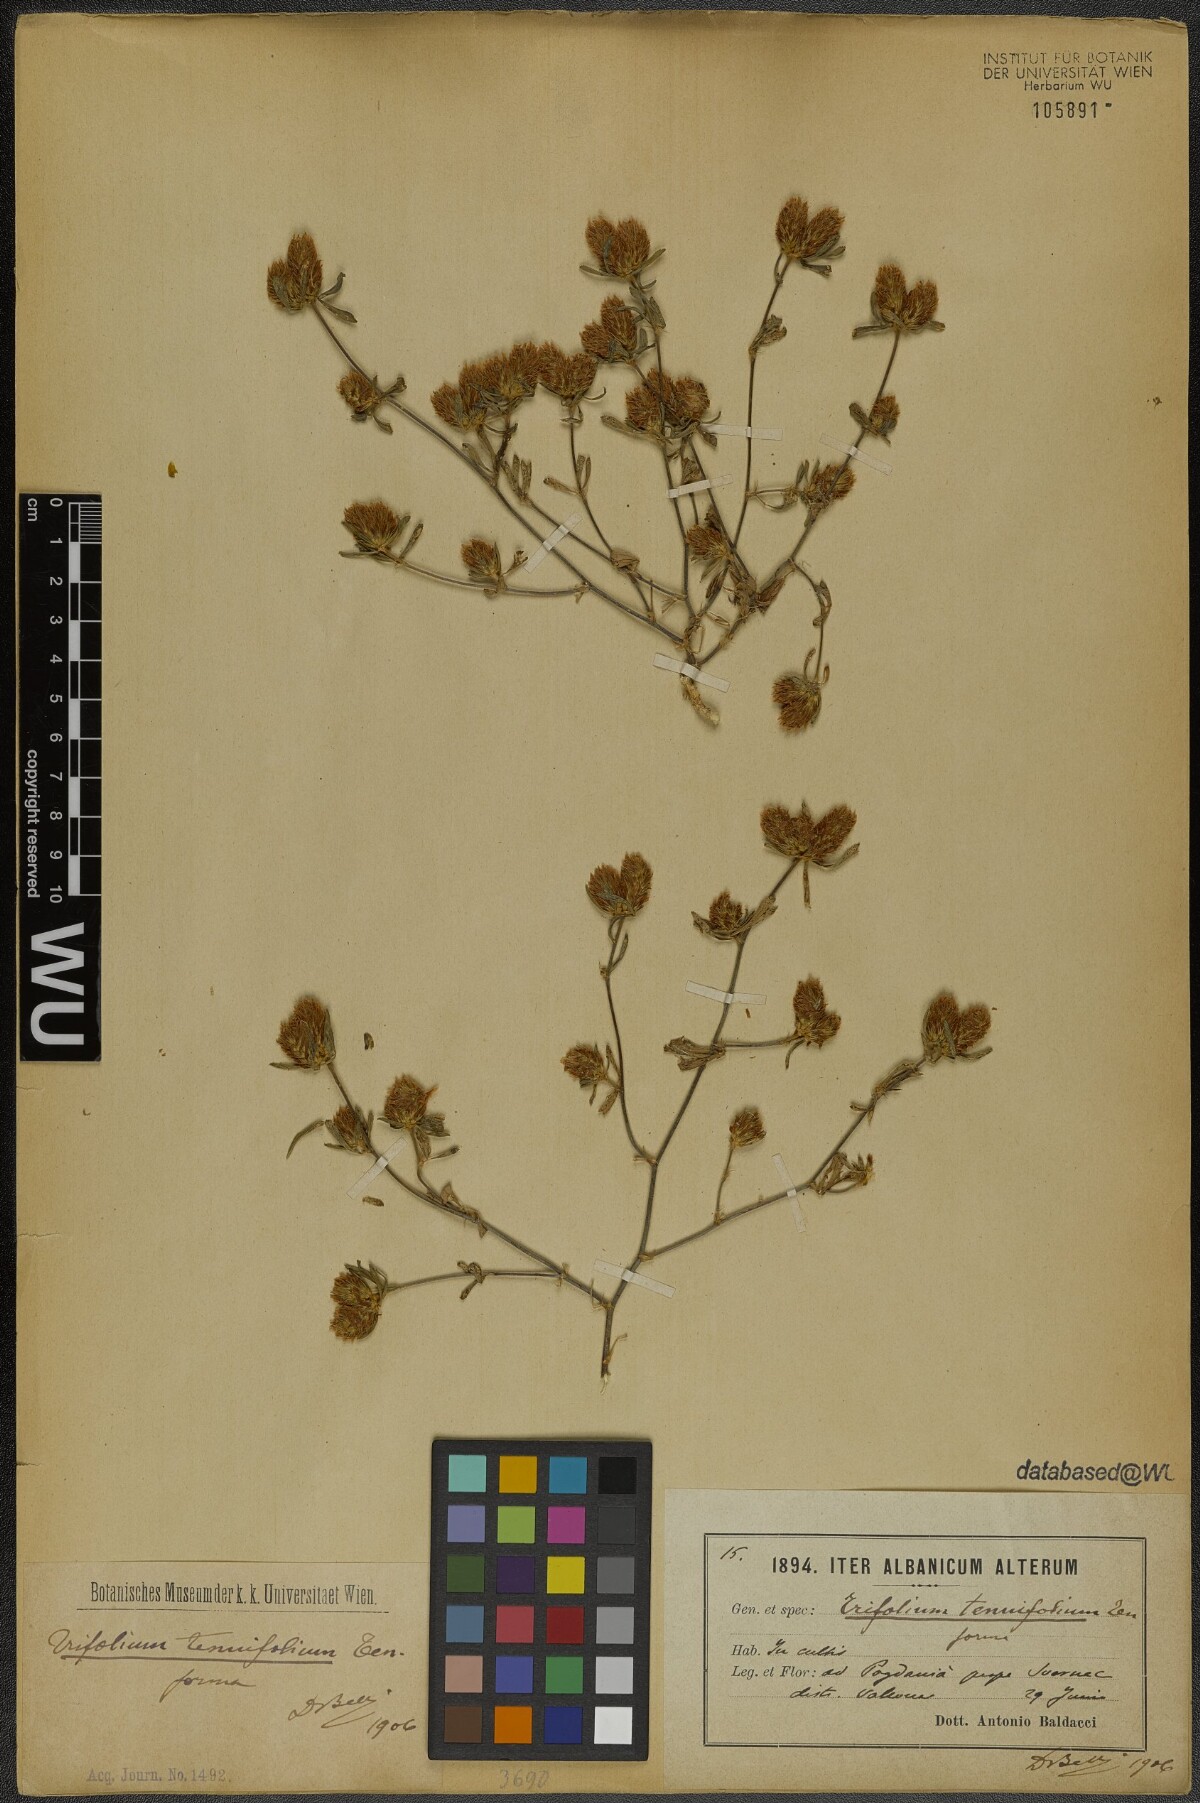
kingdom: Plantae
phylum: Tracheophyta
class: Magnoliopsida
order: Fabales
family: Fabaceae
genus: Trifolium
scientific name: Trifolium tenuifolium
